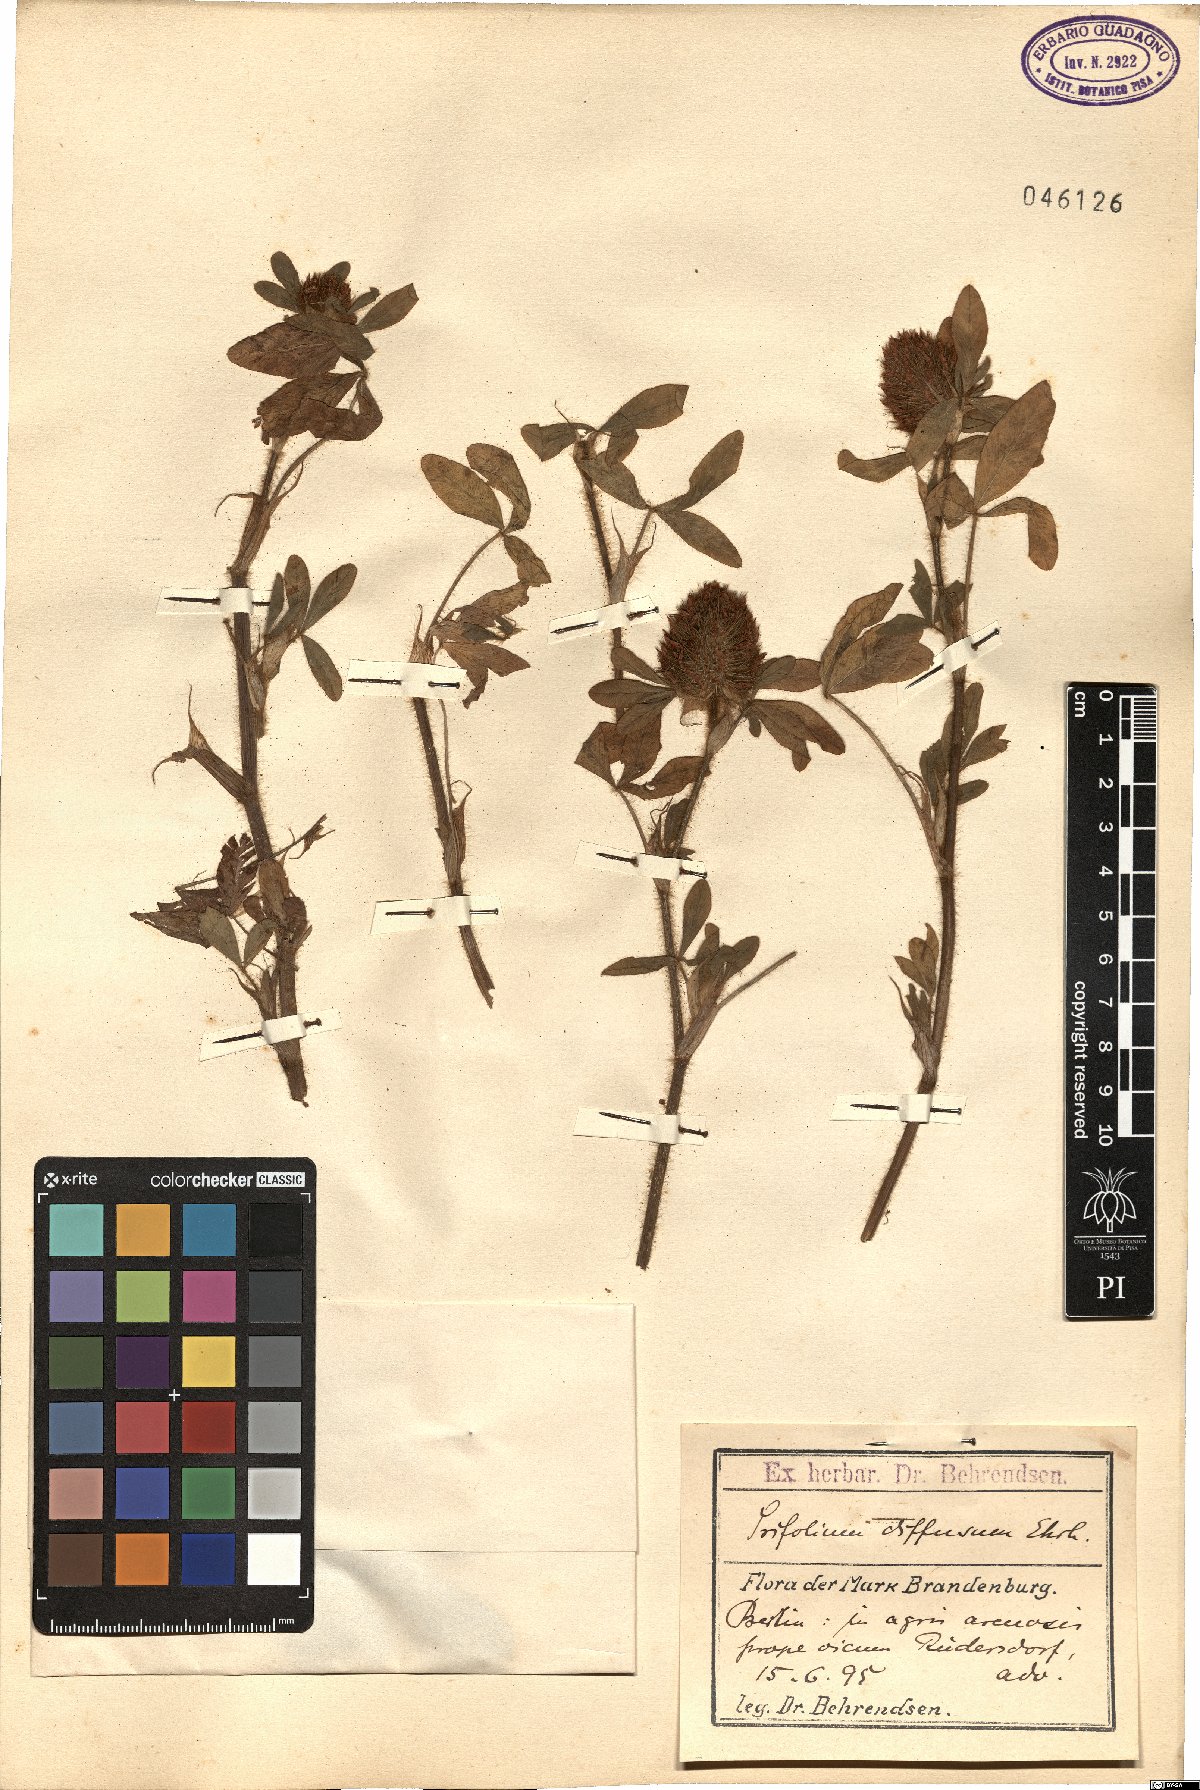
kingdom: Plantae
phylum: Tracheophyta
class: Magnoliopsida
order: Fabales
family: Fabaceae
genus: Trifolium
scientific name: Trifolium diffusum
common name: Diffuse clover
